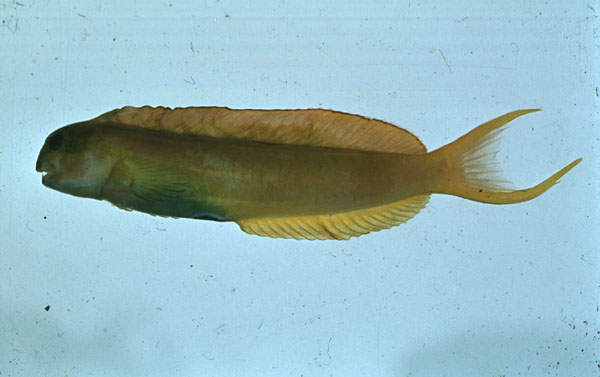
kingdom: Animalia
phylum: Chordata
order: Perciformes
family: Blenniidae
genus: Ecsenius
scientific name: Ecsenius midas
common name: Golden blenny
